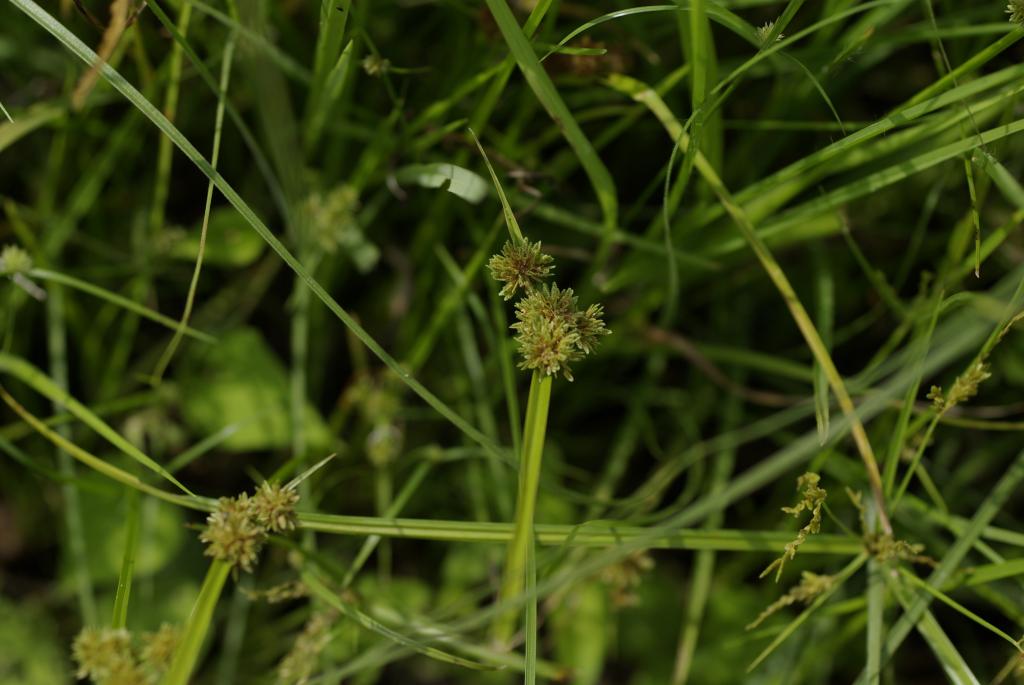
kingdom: Plantae
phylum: Tracheophyta
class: Liliopsida
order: Poales
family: Cyperaceae
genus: Cyperus
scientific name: Cyperus difformis
